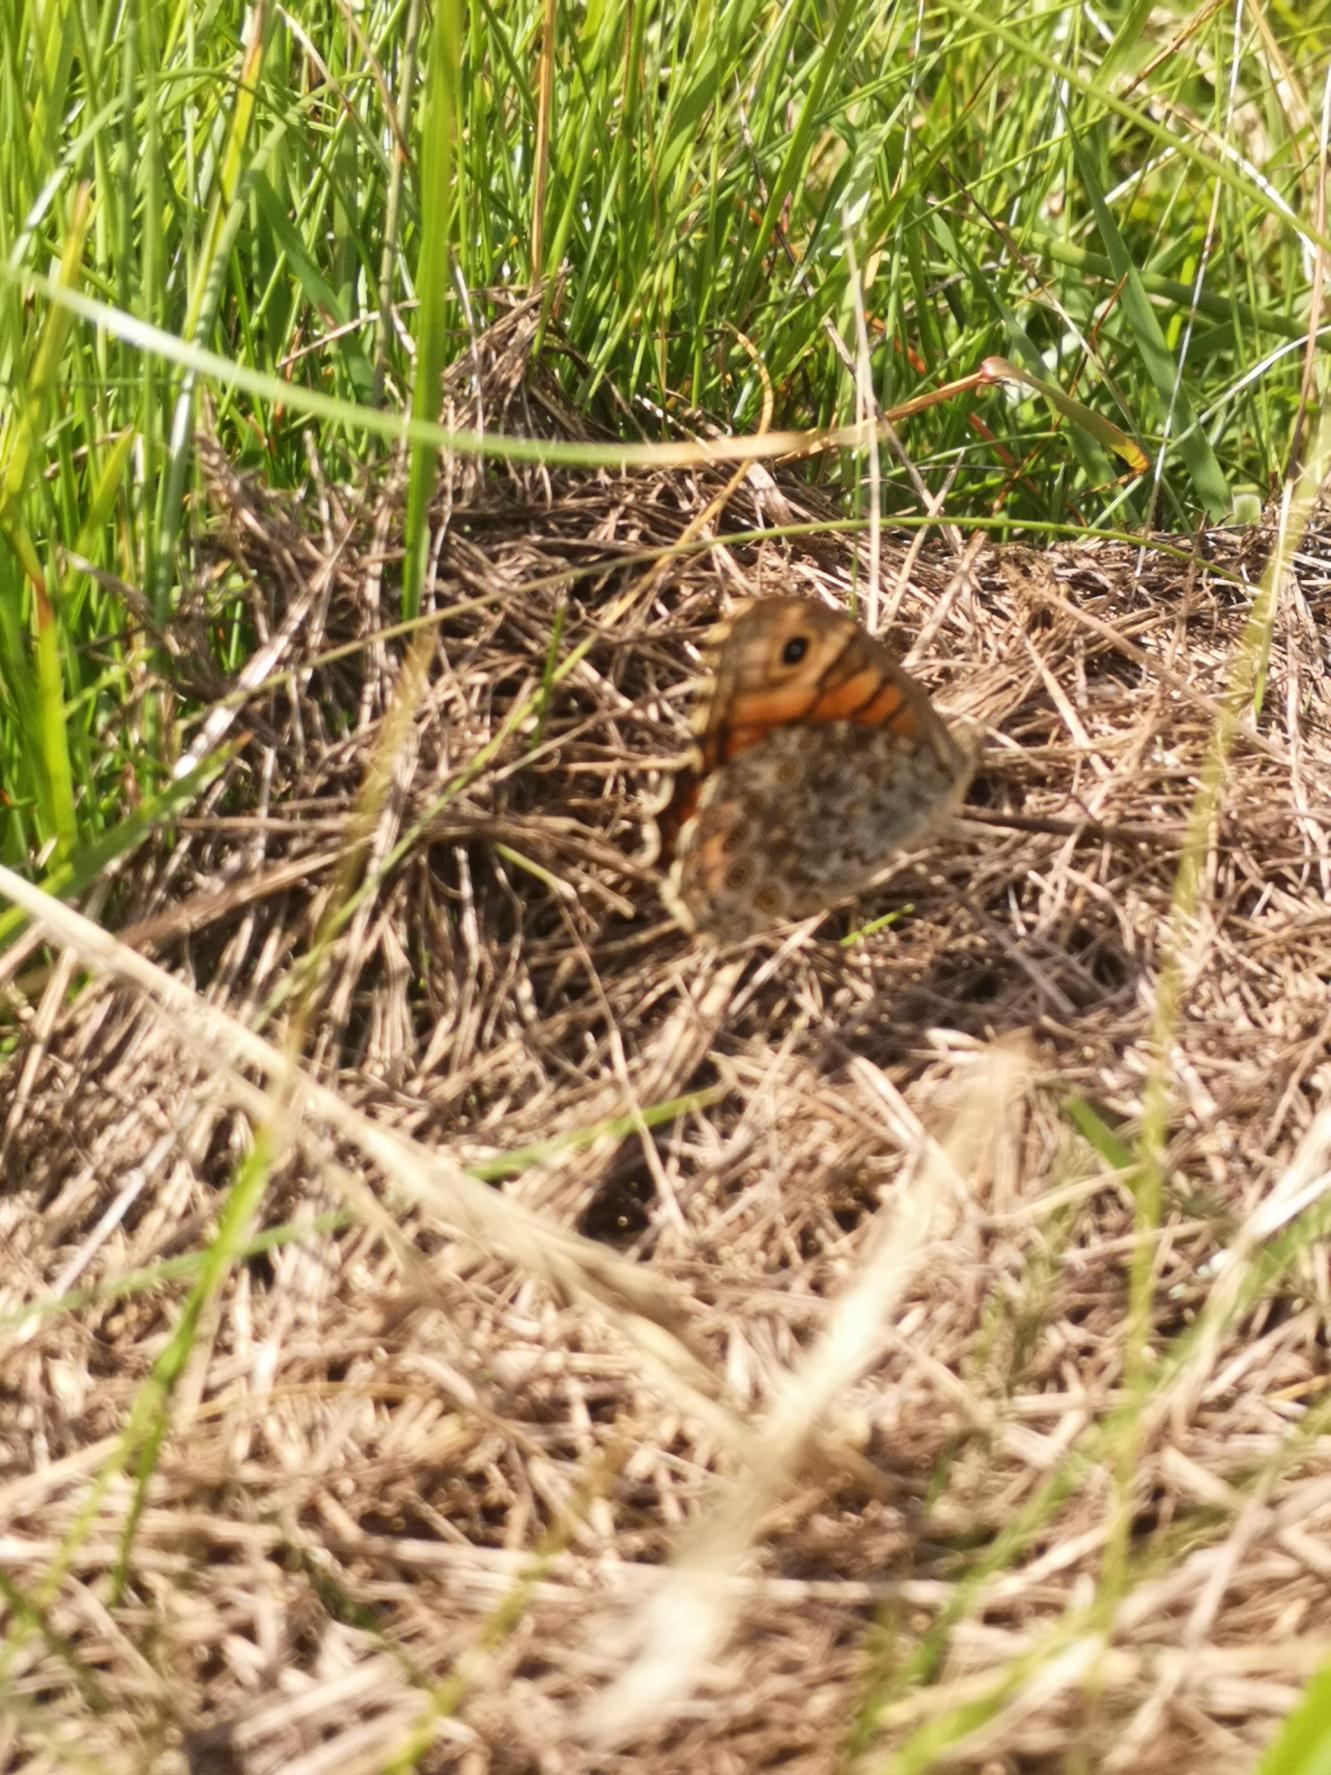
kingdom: Animalia
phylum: Arthropoda
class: Insecta
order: Lepidoptera
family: Nymphalidae
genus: Pararge
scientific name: Pararge Lasiommata megera
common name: Vejrandøje
